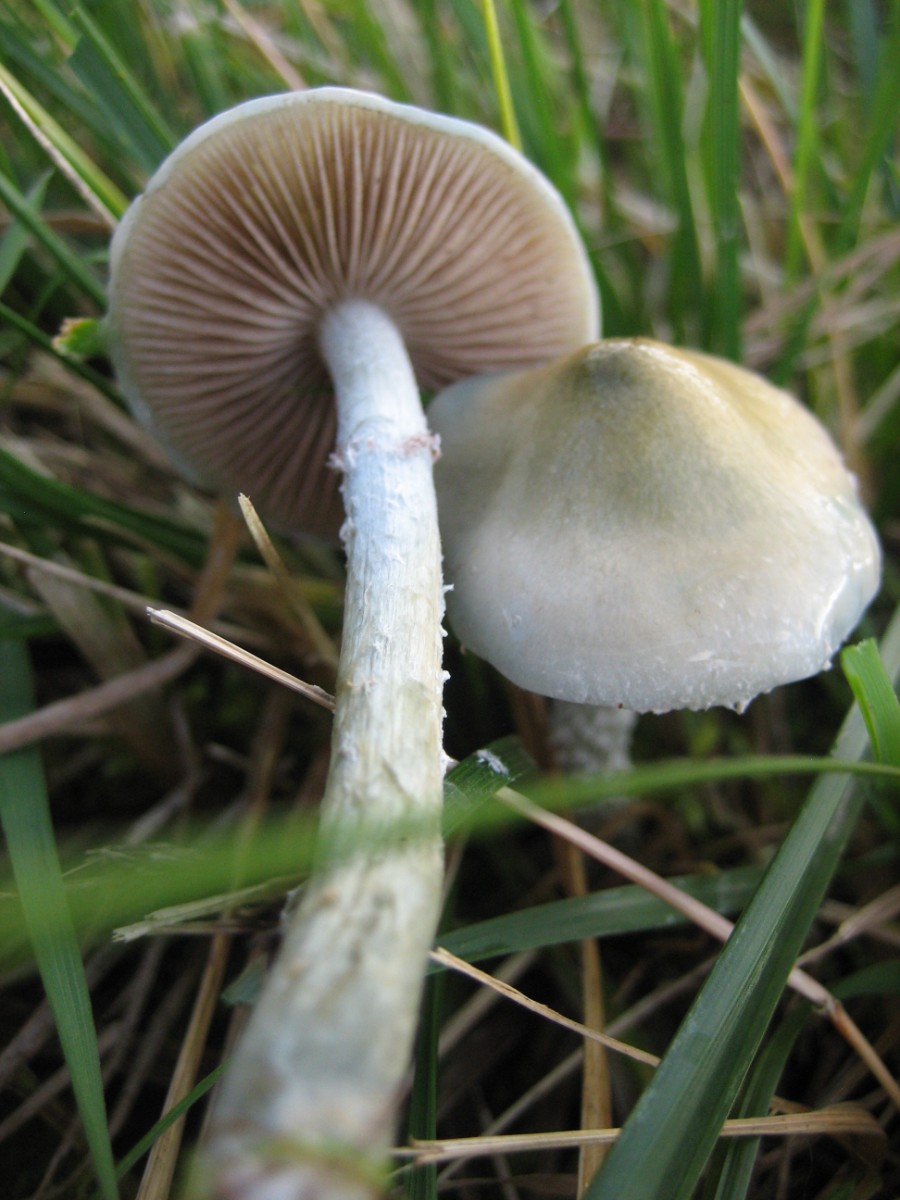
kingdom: Fungi
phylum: Basidiomycota
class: Agaricomycetes
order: Agaricales
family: Strophariaceae
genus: Stropharia
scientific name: Stropharia cyanea
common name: blågrøn bredblad
